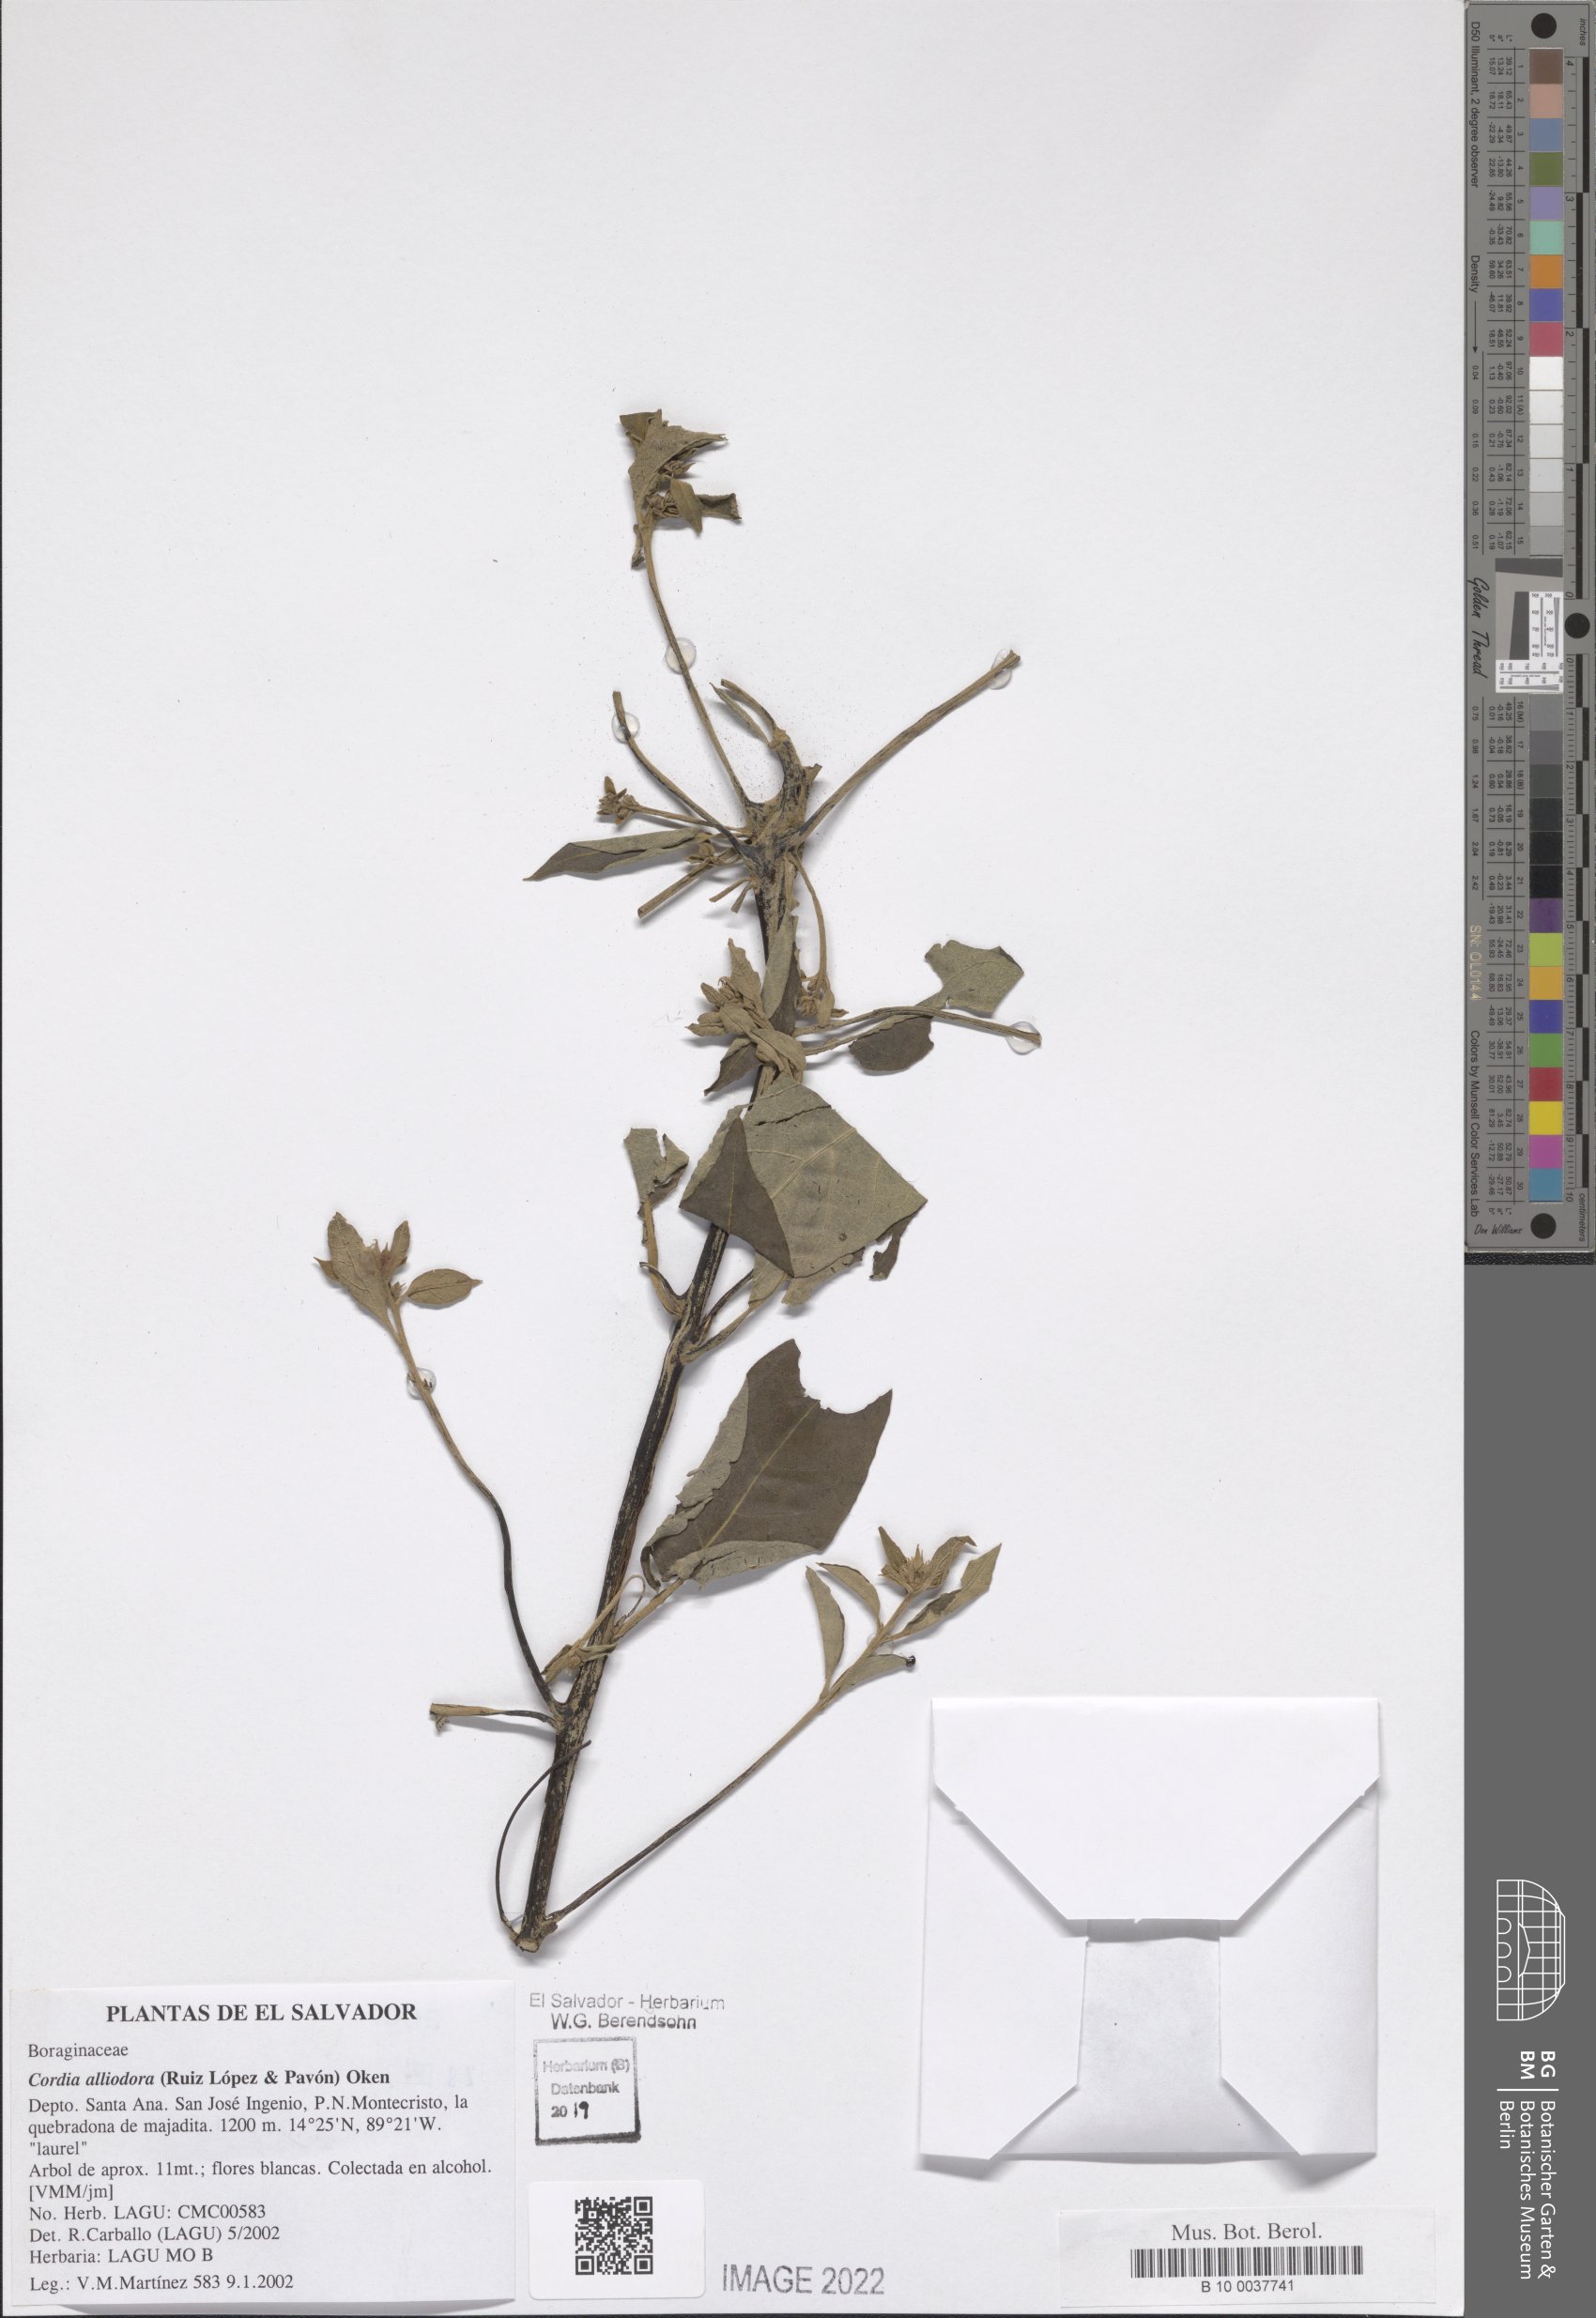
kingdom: Plantae
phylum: Tracheophyta
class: Magnoliopsida
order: Boraginales
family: Cordiaceae
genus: Cordia
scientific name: Cordia alliodora
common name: Spanish elm
